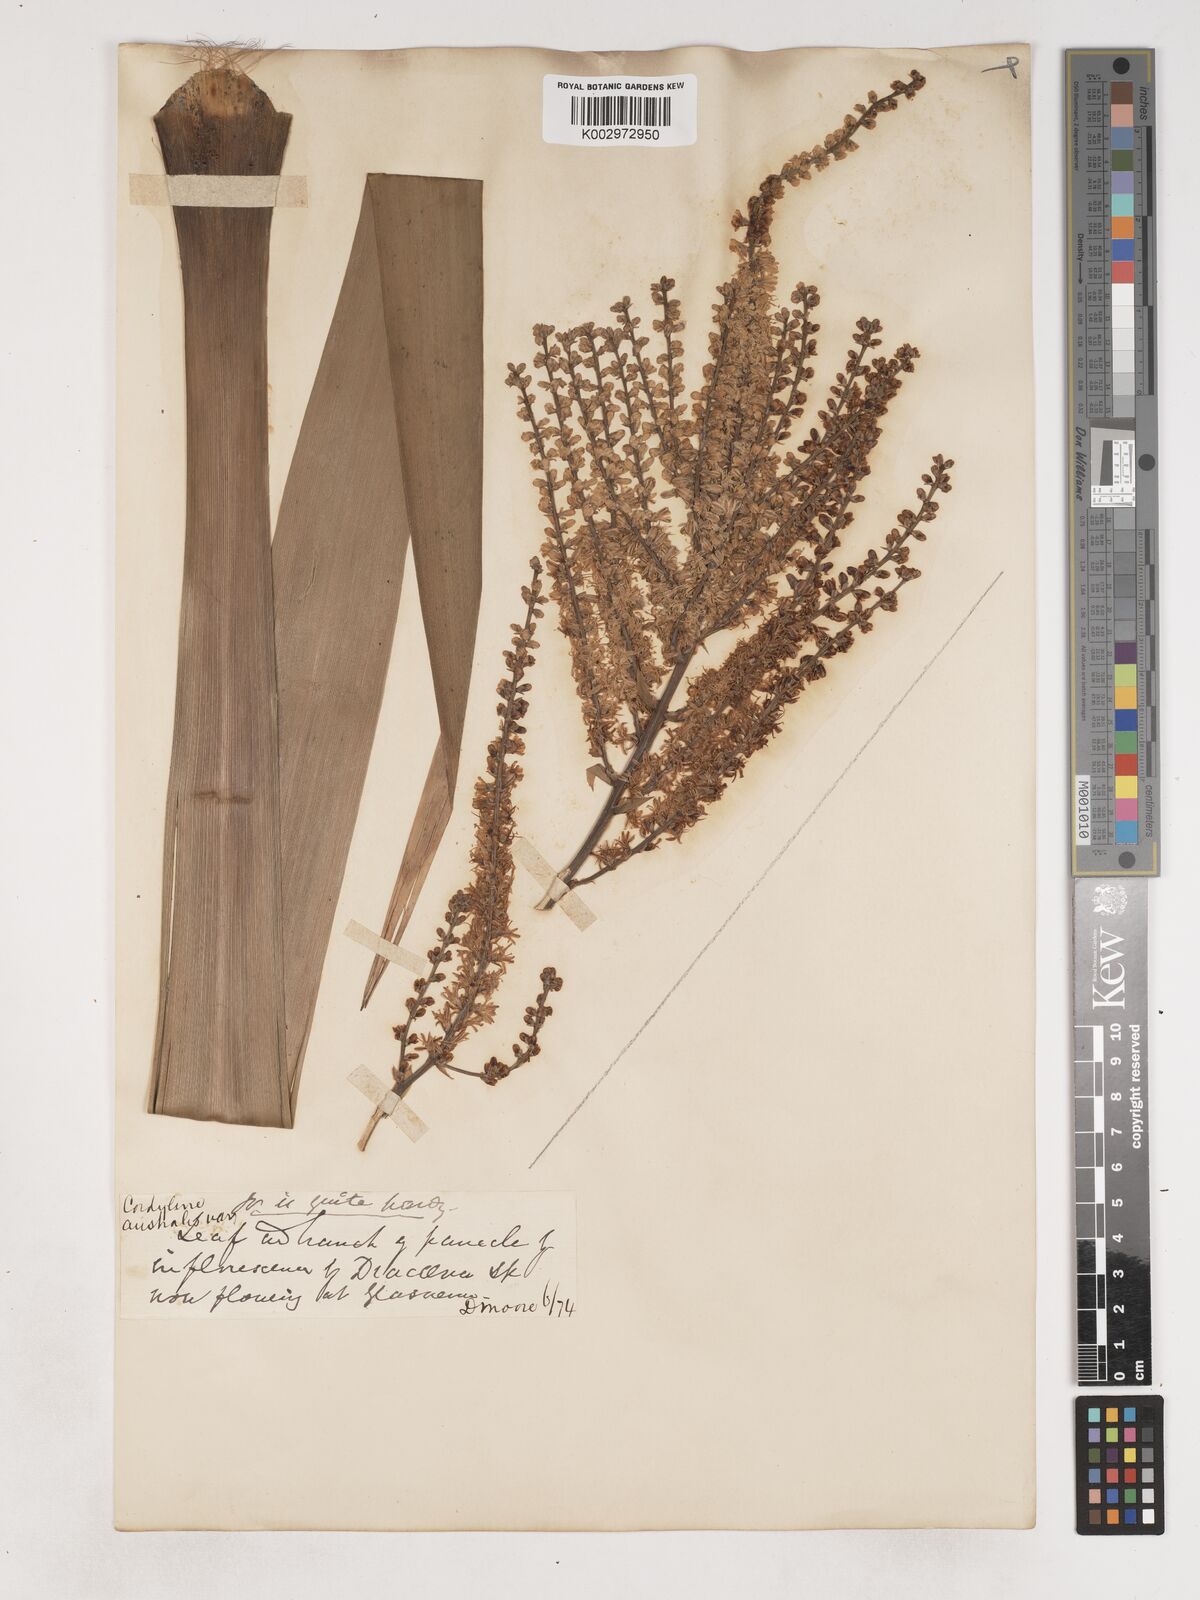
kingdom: Plantae
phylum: Tracheophyta
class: Liliopsida
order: Asparagales
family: Asparagaceae
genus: Cordyline
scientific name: Cordyline australis
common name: Cabbage-palm
